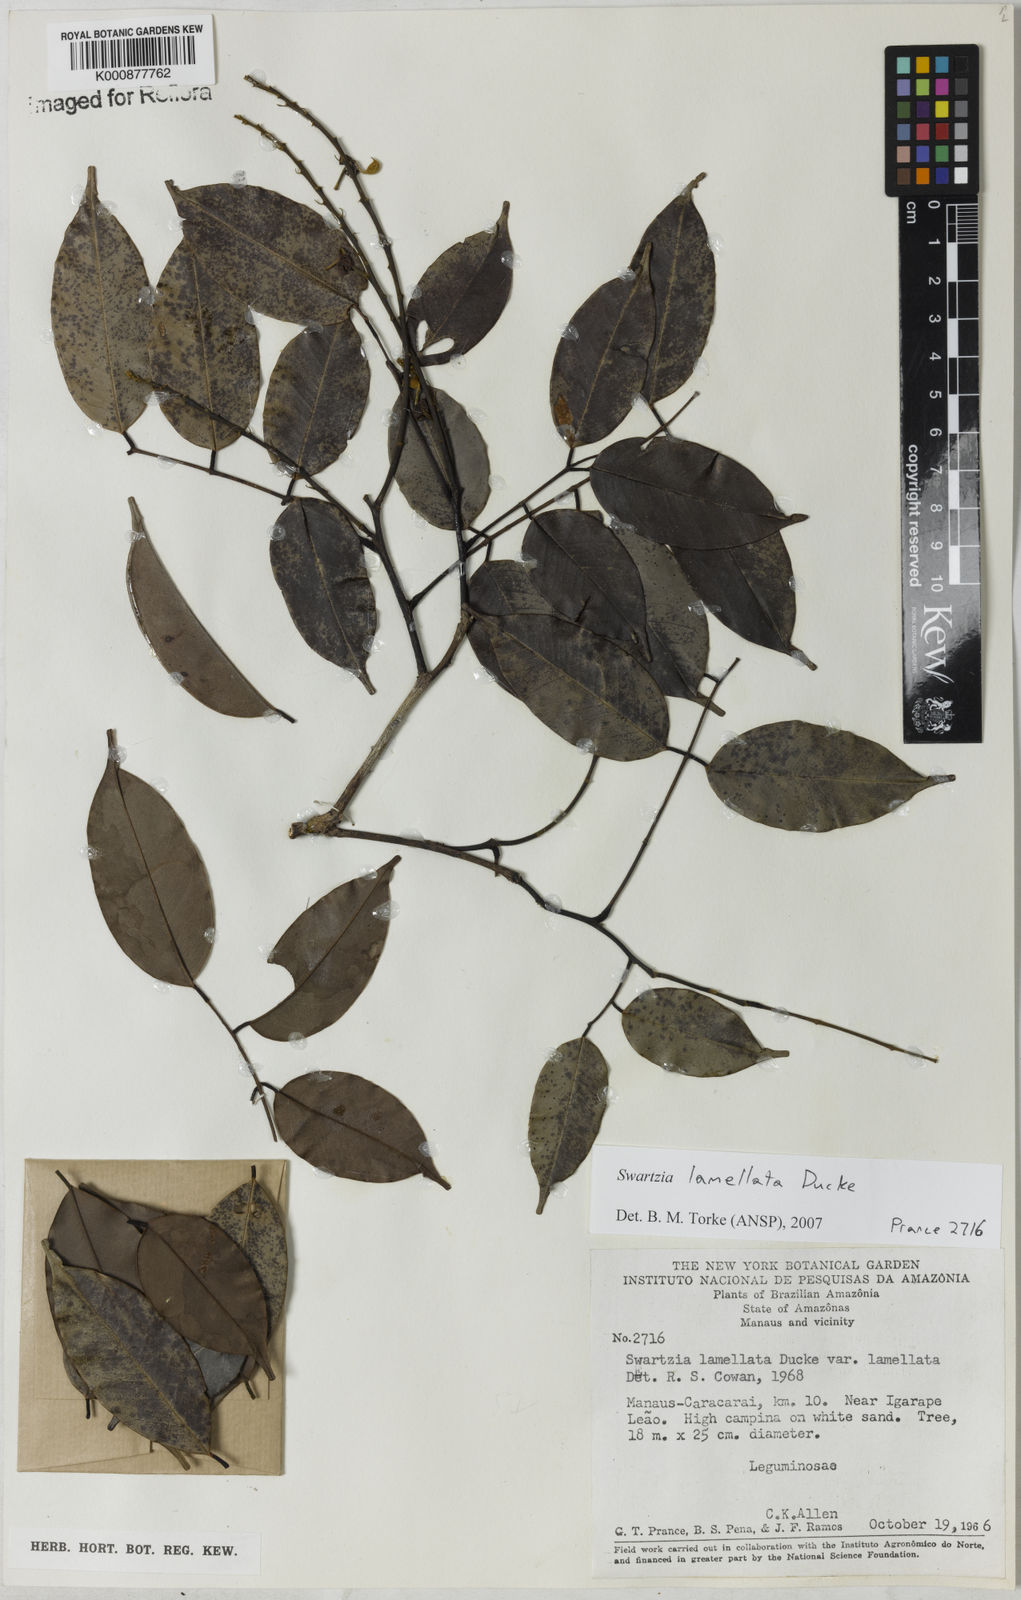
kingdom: Plantae
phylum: Tracheophyta
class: Magnoliopsida
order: Fabales
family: Fabaceae
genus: Swartzia
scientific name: Swartzia lamellata
